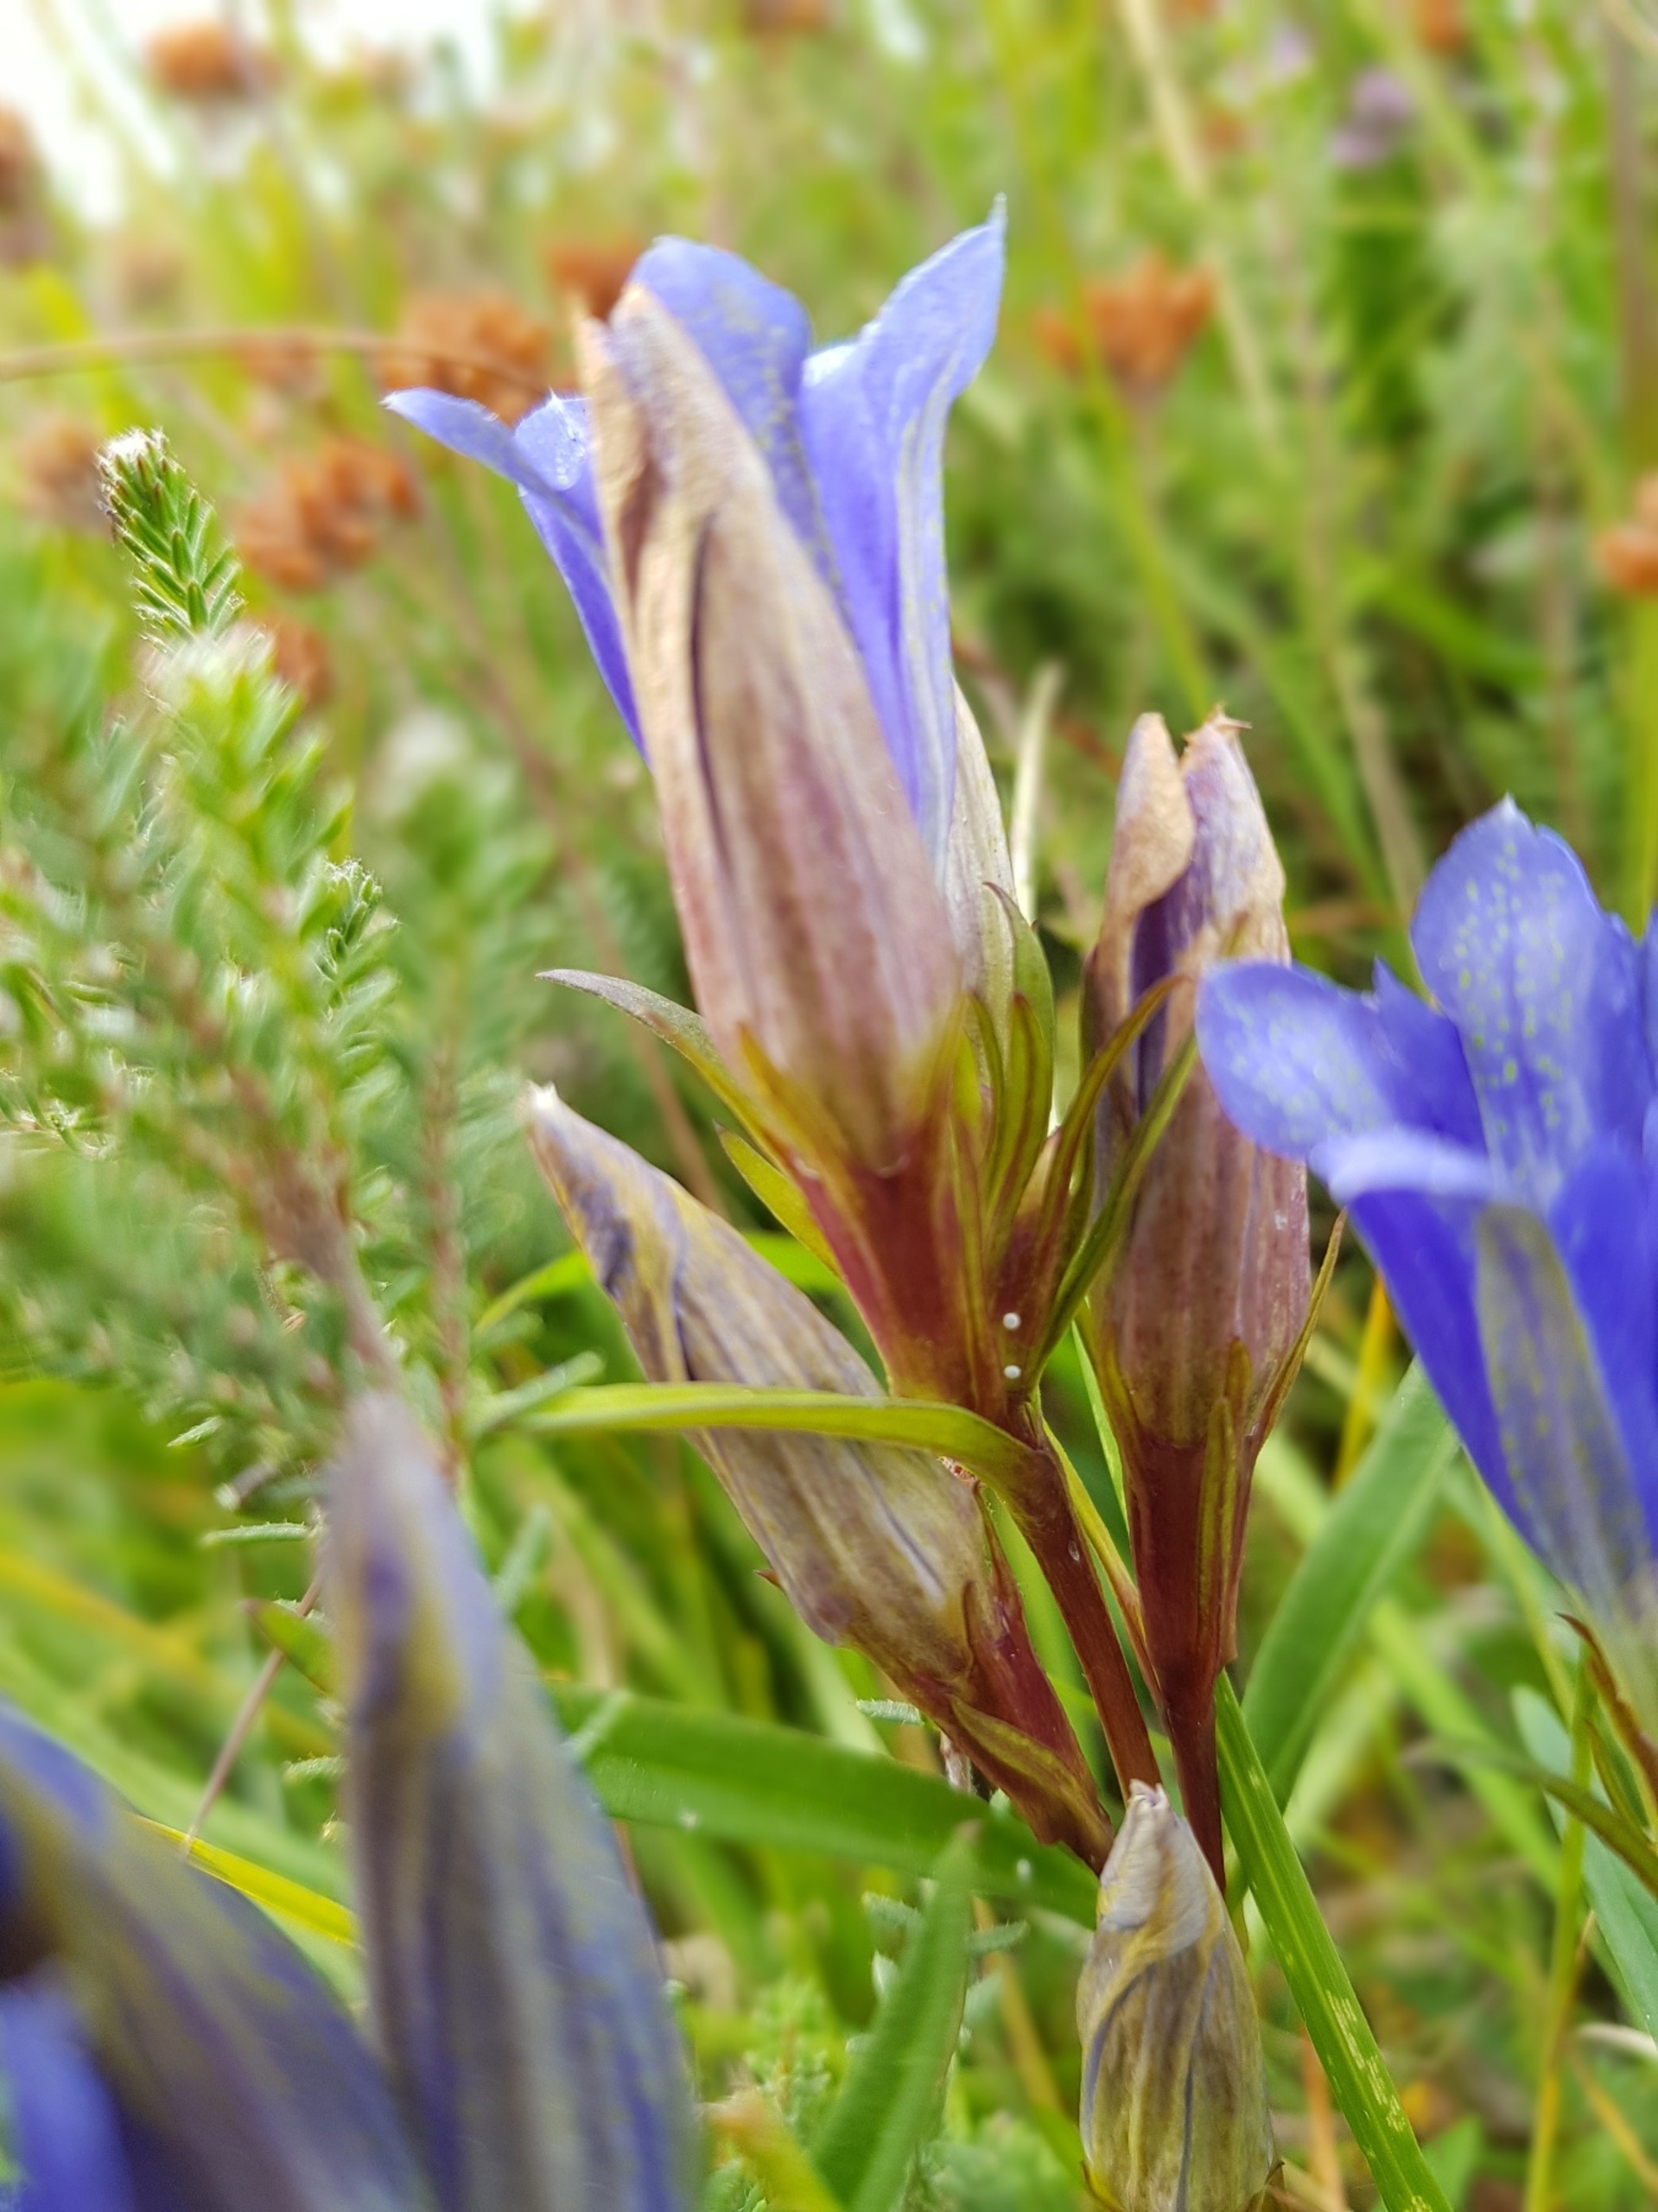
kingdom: Animalia
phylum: Arthropoda
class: Insecta
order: Lepidoptera
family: Lycaenidae
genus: Maculinea
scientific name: Maculinea alcon
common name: Ensianblåfugl
